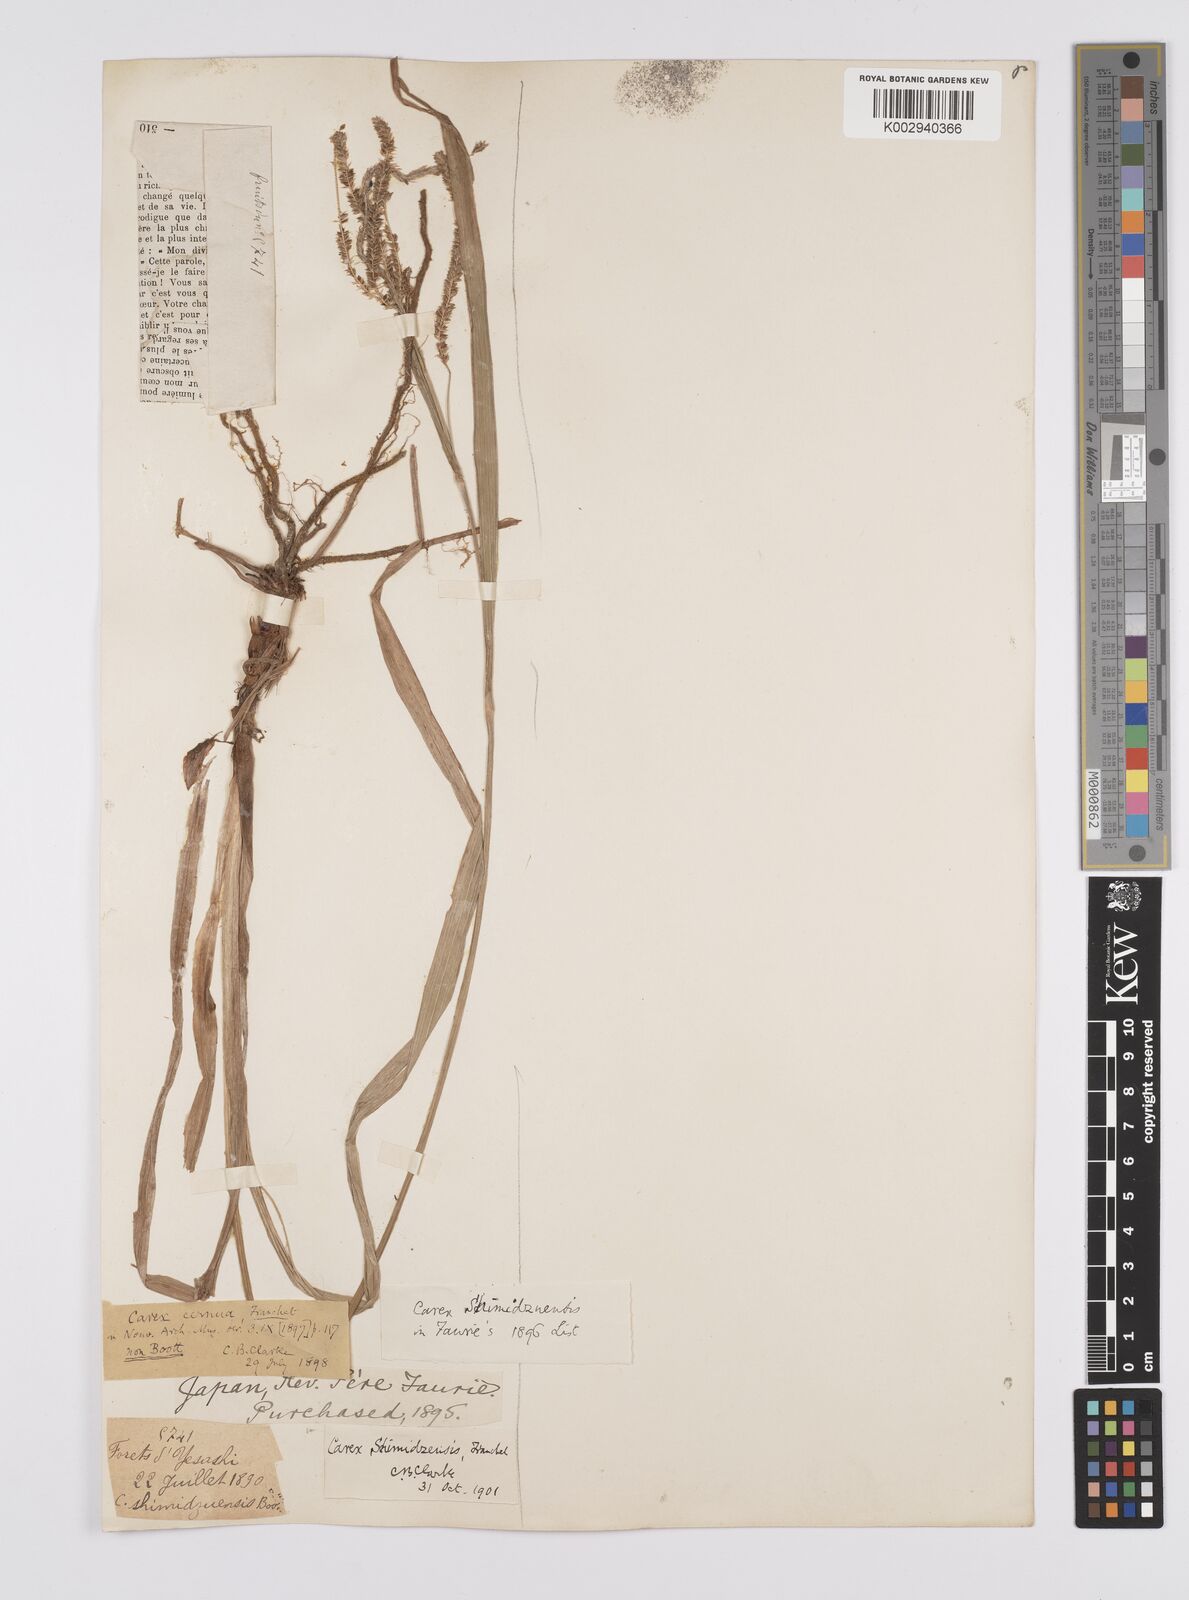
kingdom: Plantae
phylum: Tracheophyta
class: Liliopsida
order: Poales
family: Cyperaceae
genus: Carex
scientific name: Carex shimidzensis
